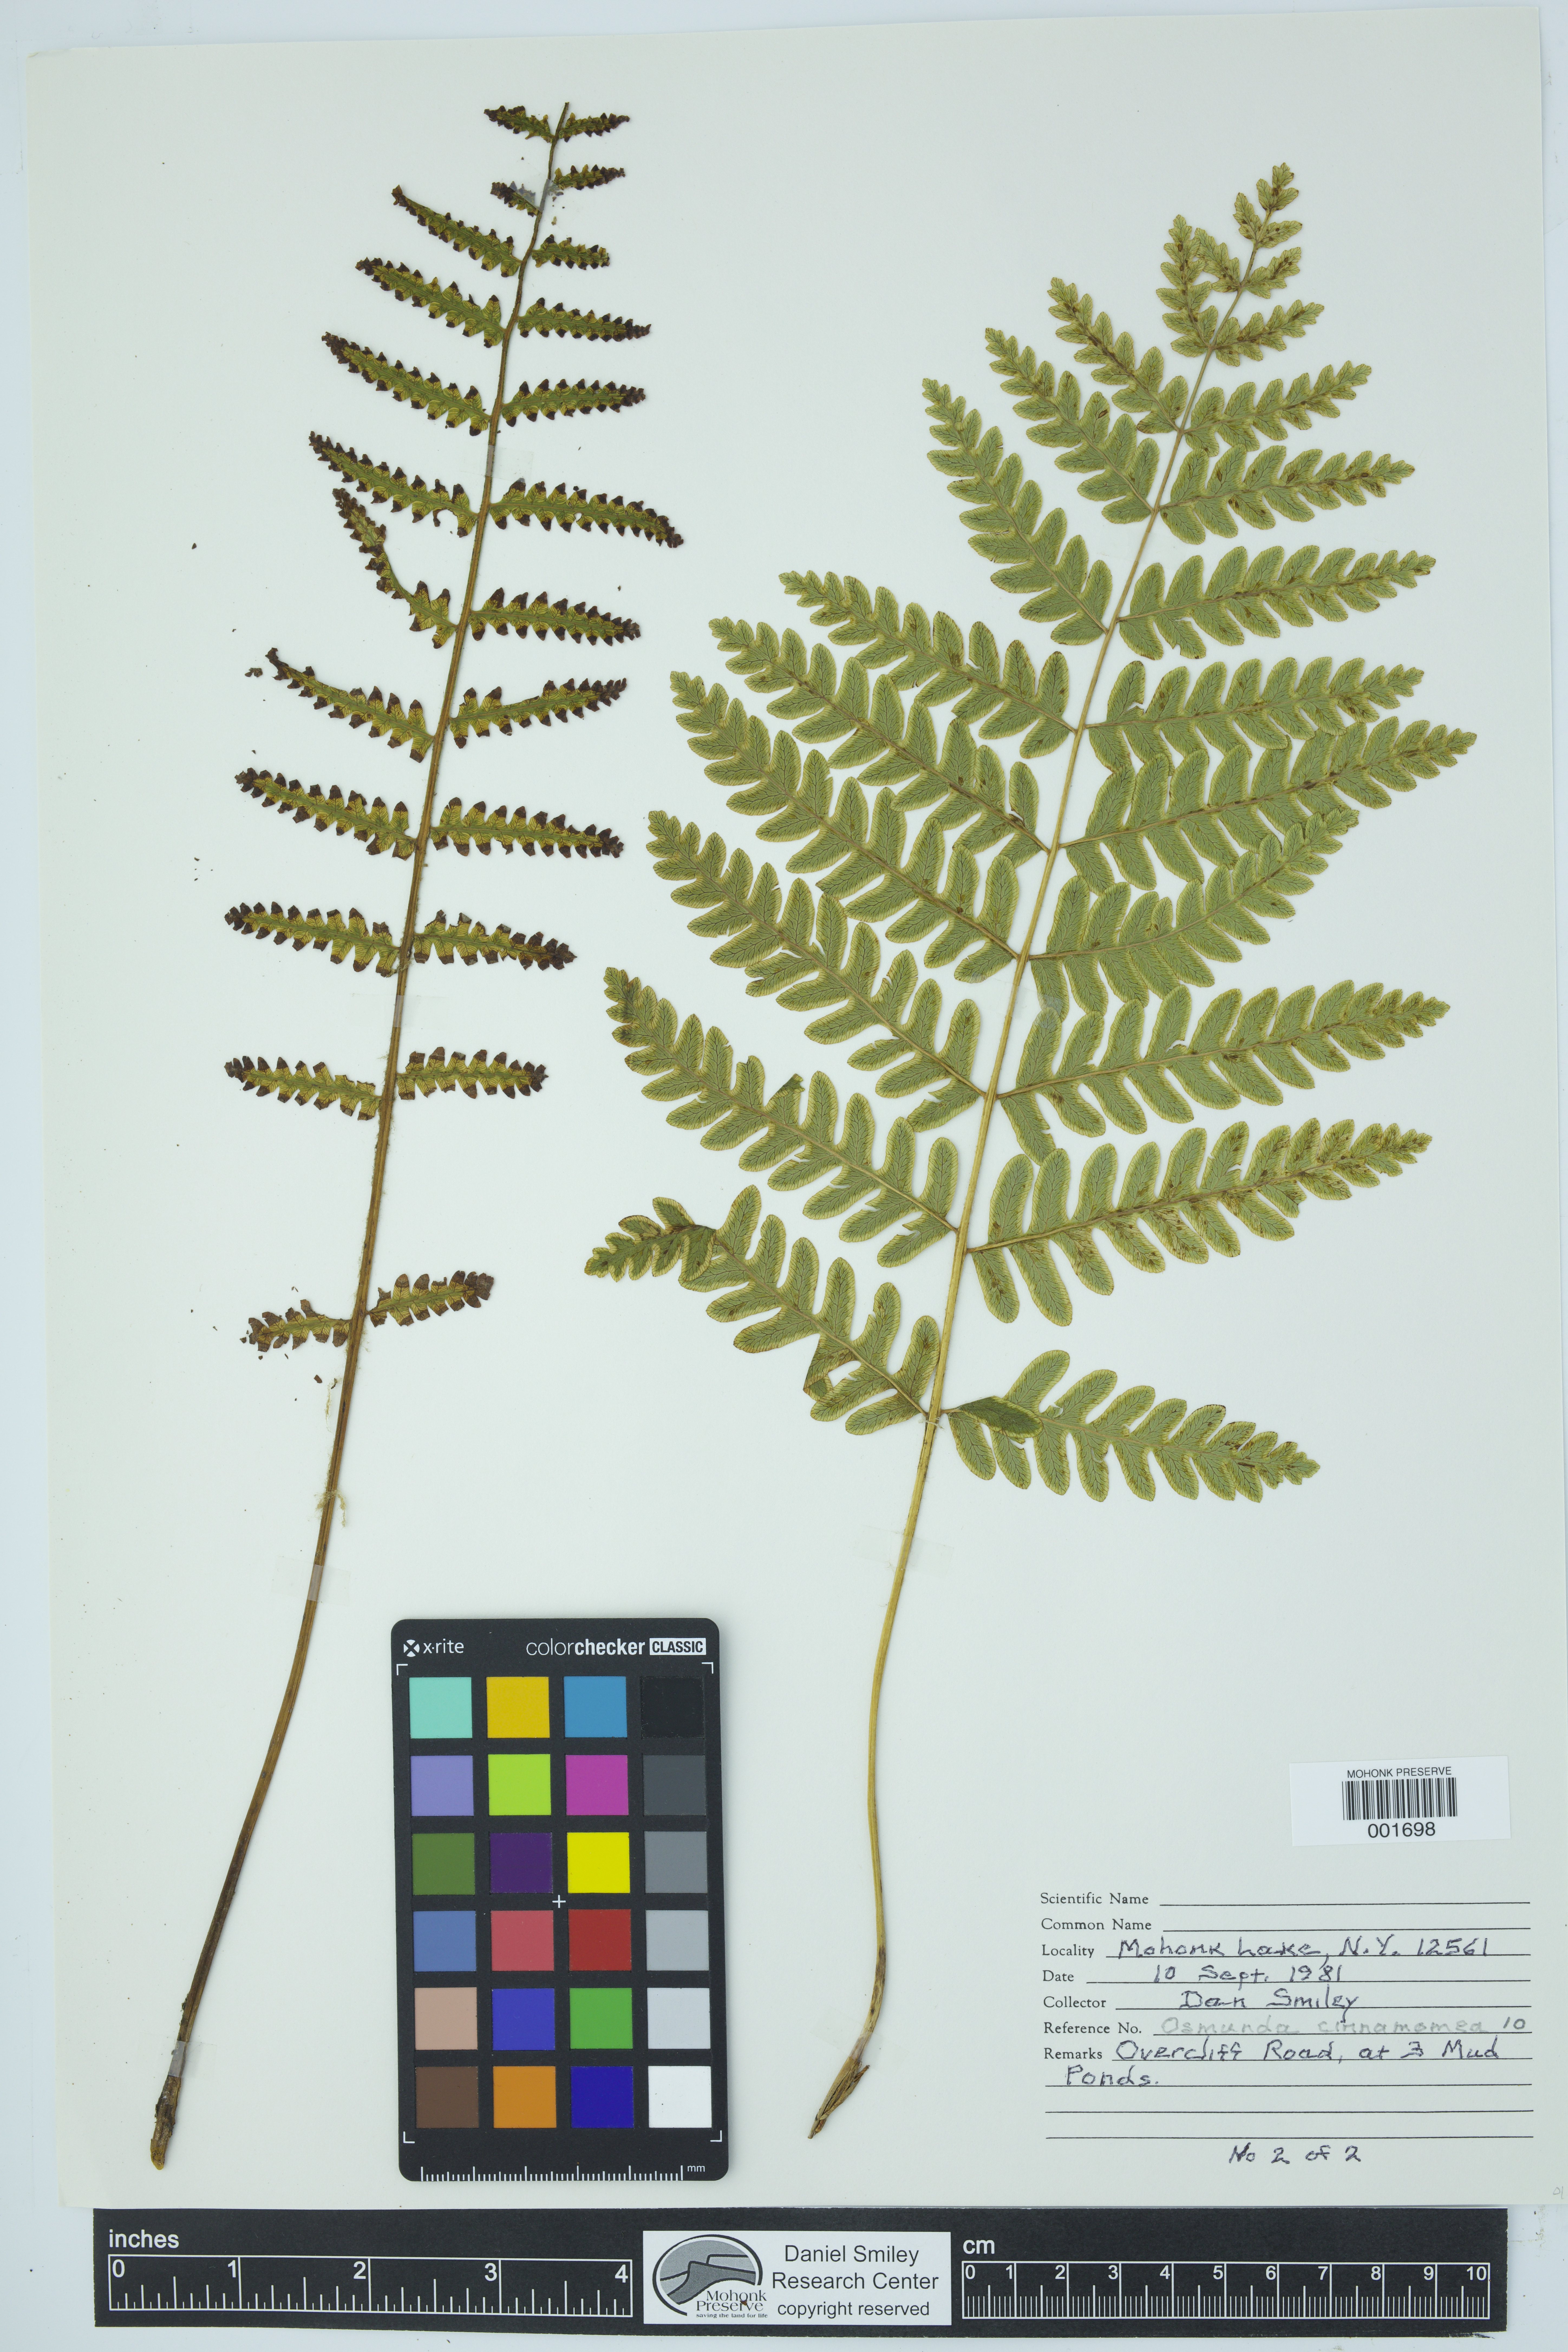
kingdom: Plantae
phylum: Tracheophyta
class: Polypodiopsida
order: Osmundales
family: Osmundaceae
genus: Osmundastrum
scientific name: Osmundastrum cinnamomeum
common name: Cinnamon fern
